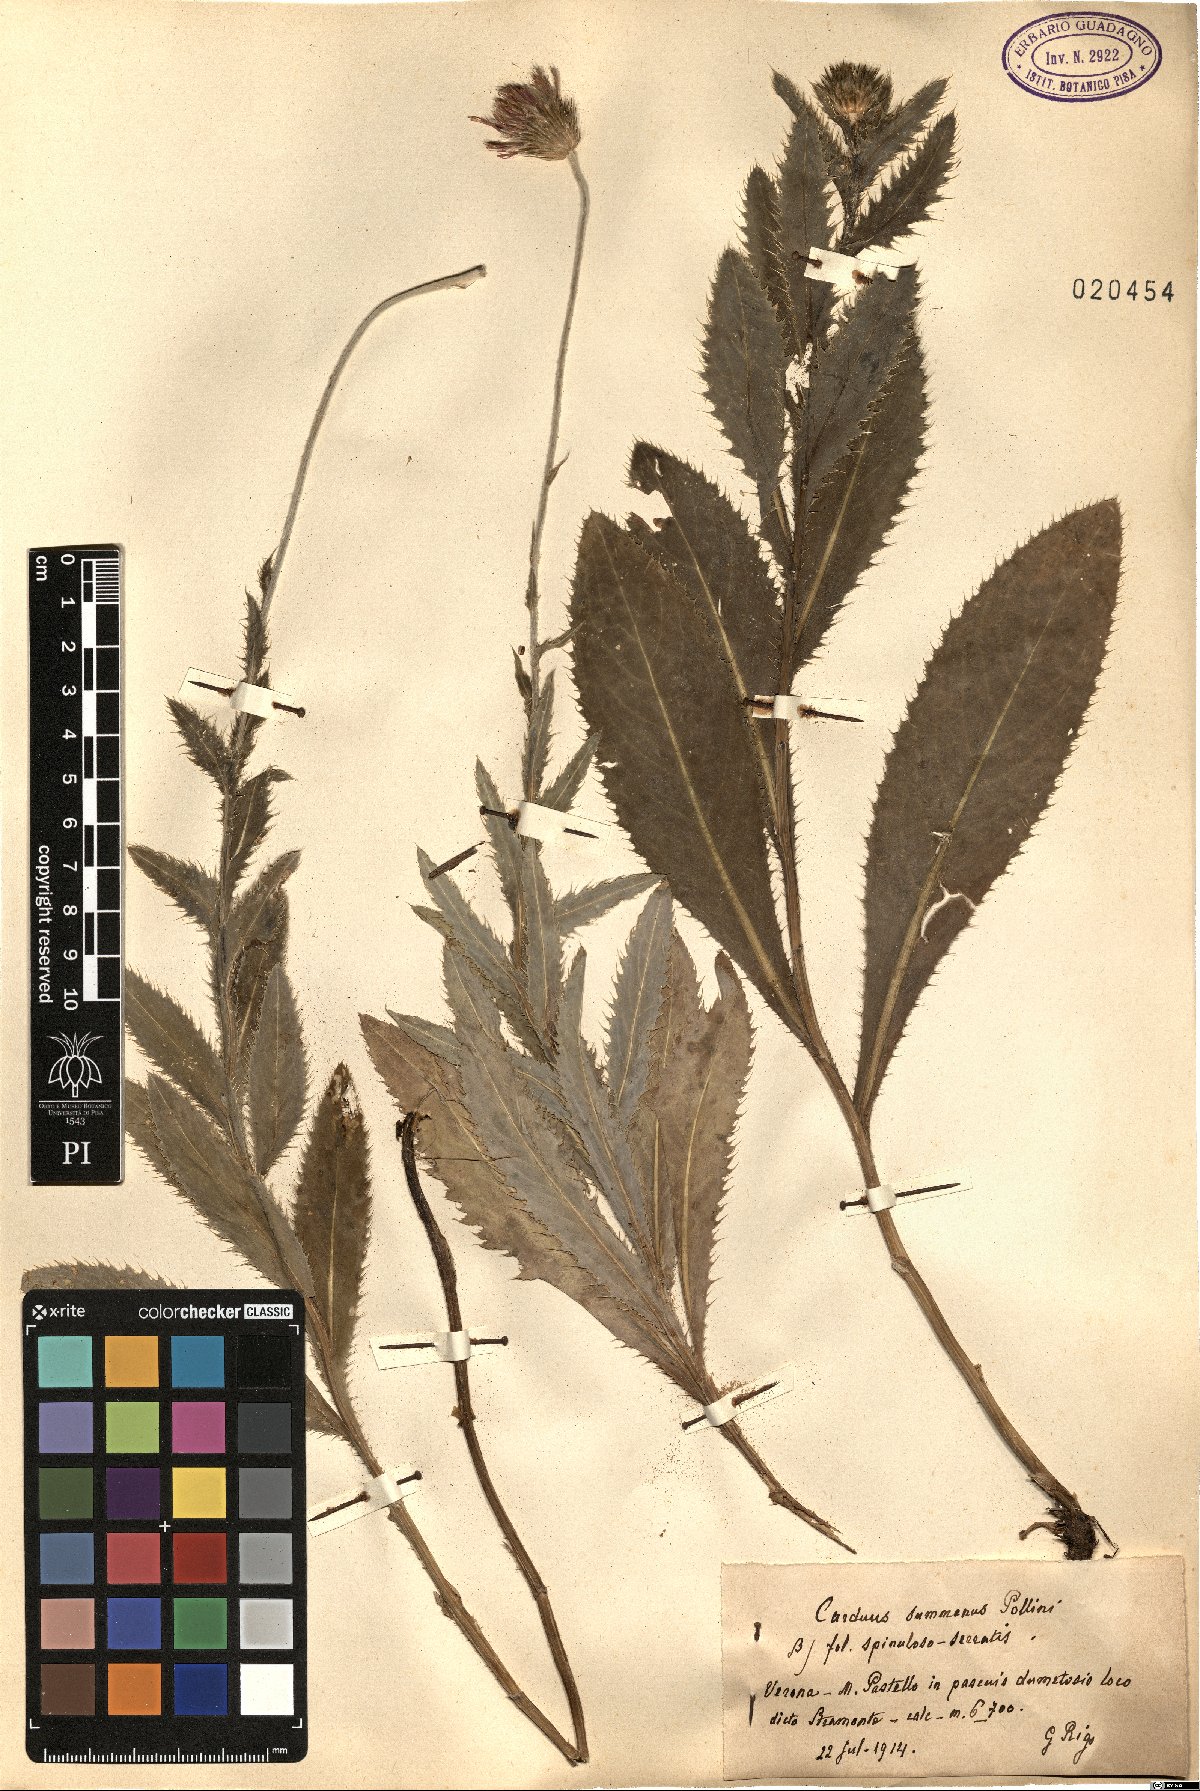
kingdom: Plantae
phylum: Tracheophyta
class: Magnoliopsida
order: Asterales
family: Asteraceae
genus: Carduus
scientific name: Carduus defloratus
